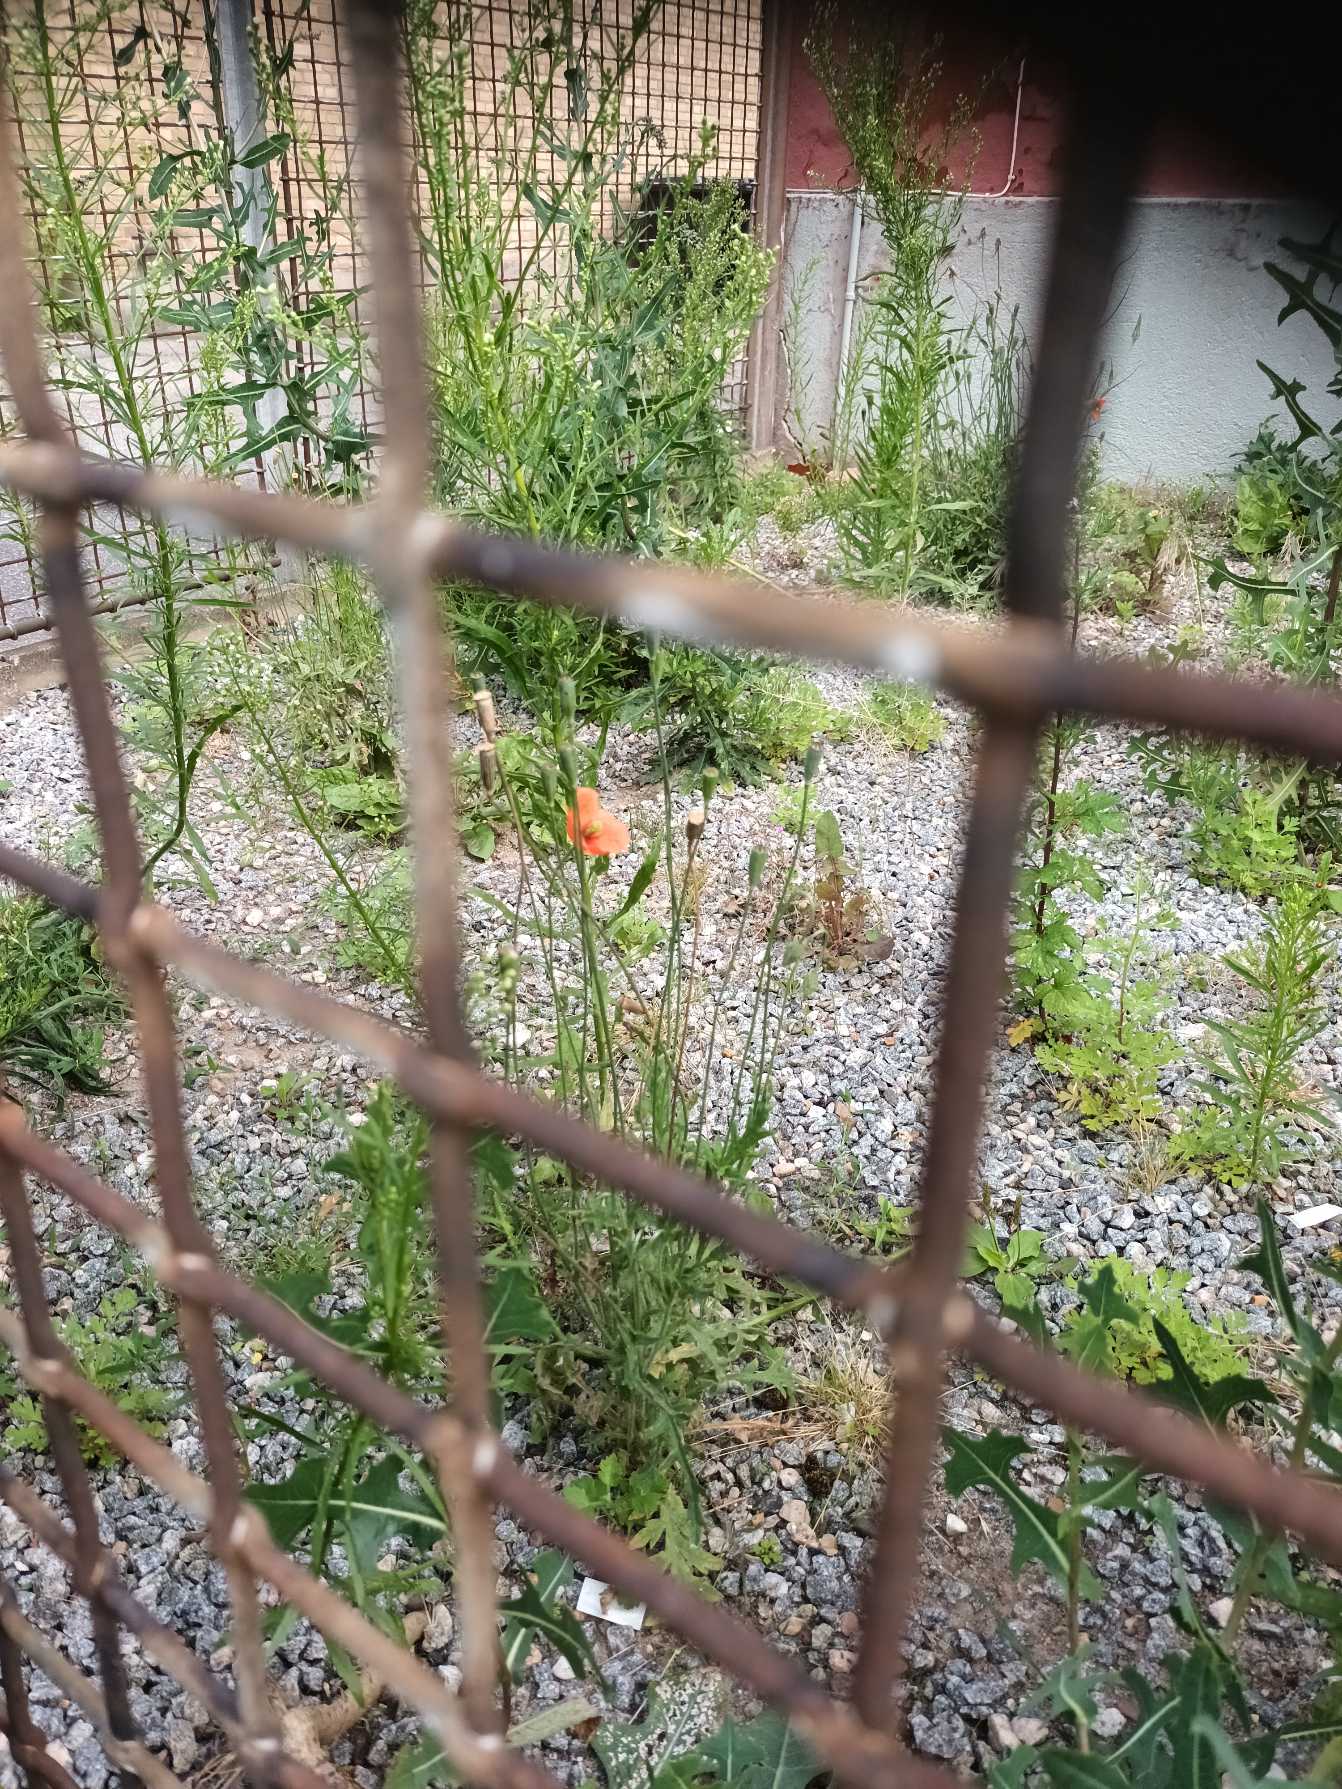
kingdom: Plantae
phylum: Tracheophyta
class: Magnoliopsida
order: Ranunculales
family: Papaveraceae
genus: Papaver
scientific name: Papaver dubium
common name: Gærde-valmue
